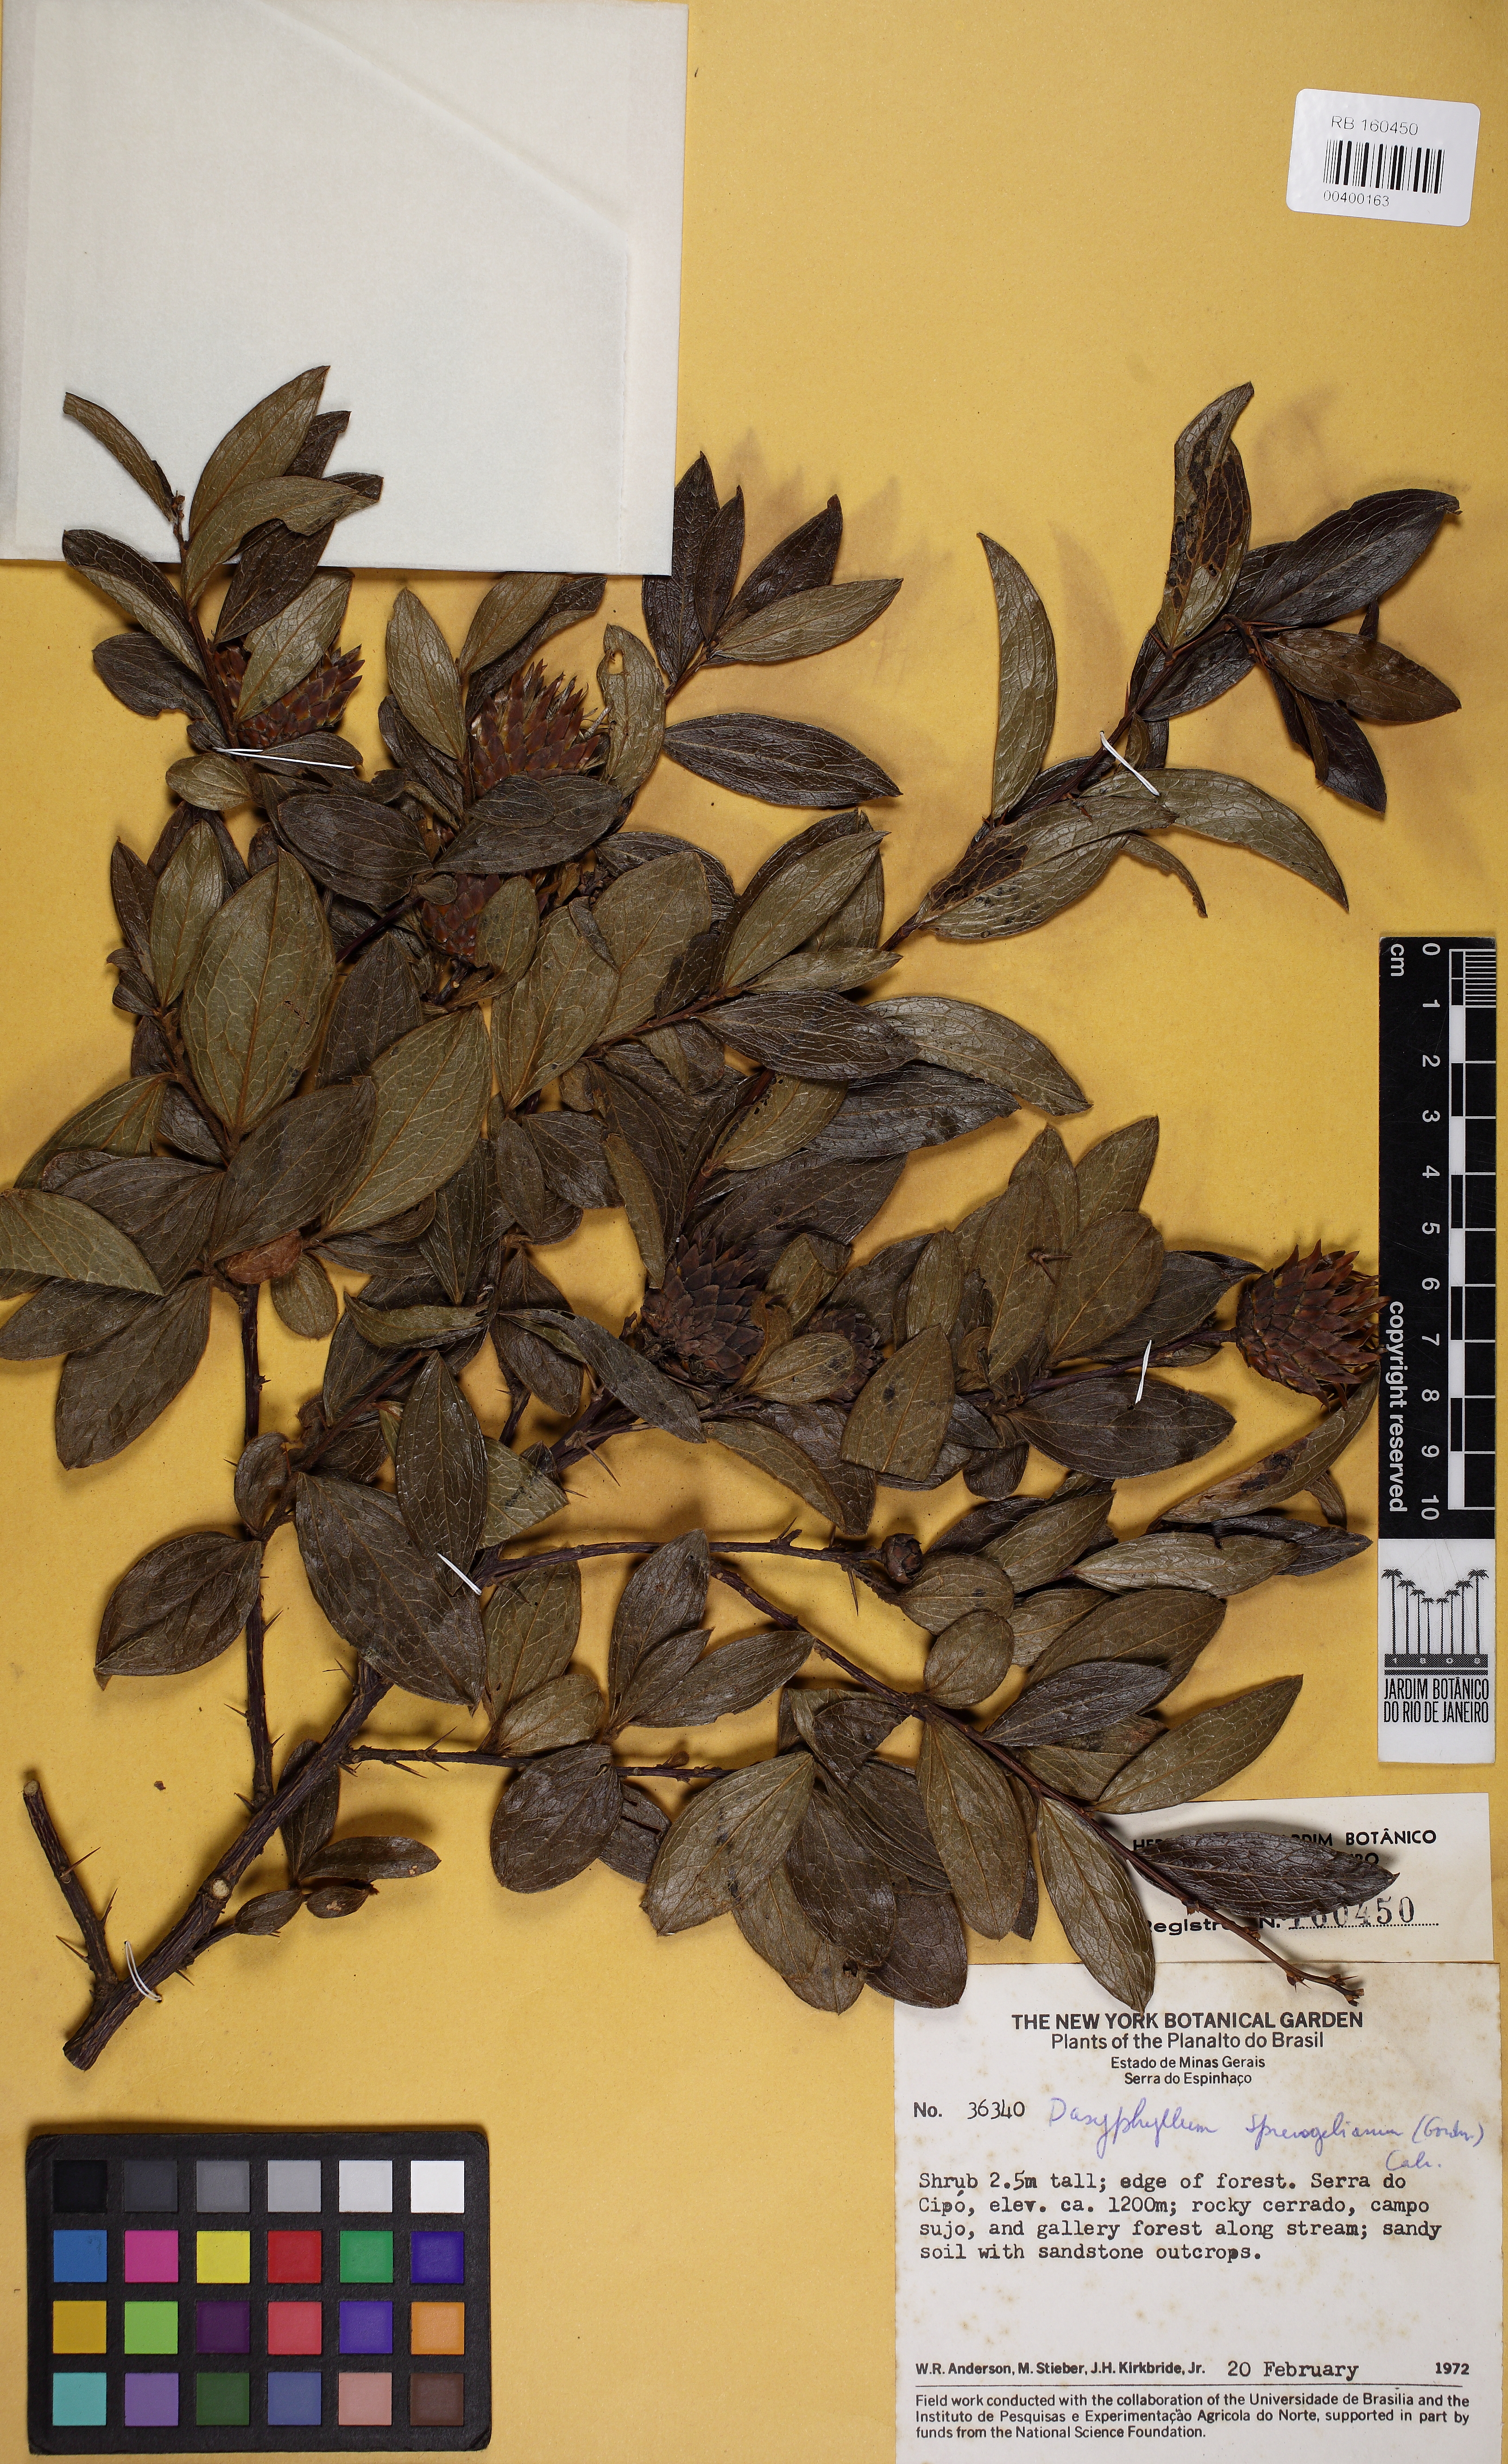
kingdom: Plantae
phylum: Tracheophyta
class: Magnoliopsida
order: Asterales
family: Asteraceae
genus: Dasyphyllum
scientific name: Dasyphyllum sprengelianum
